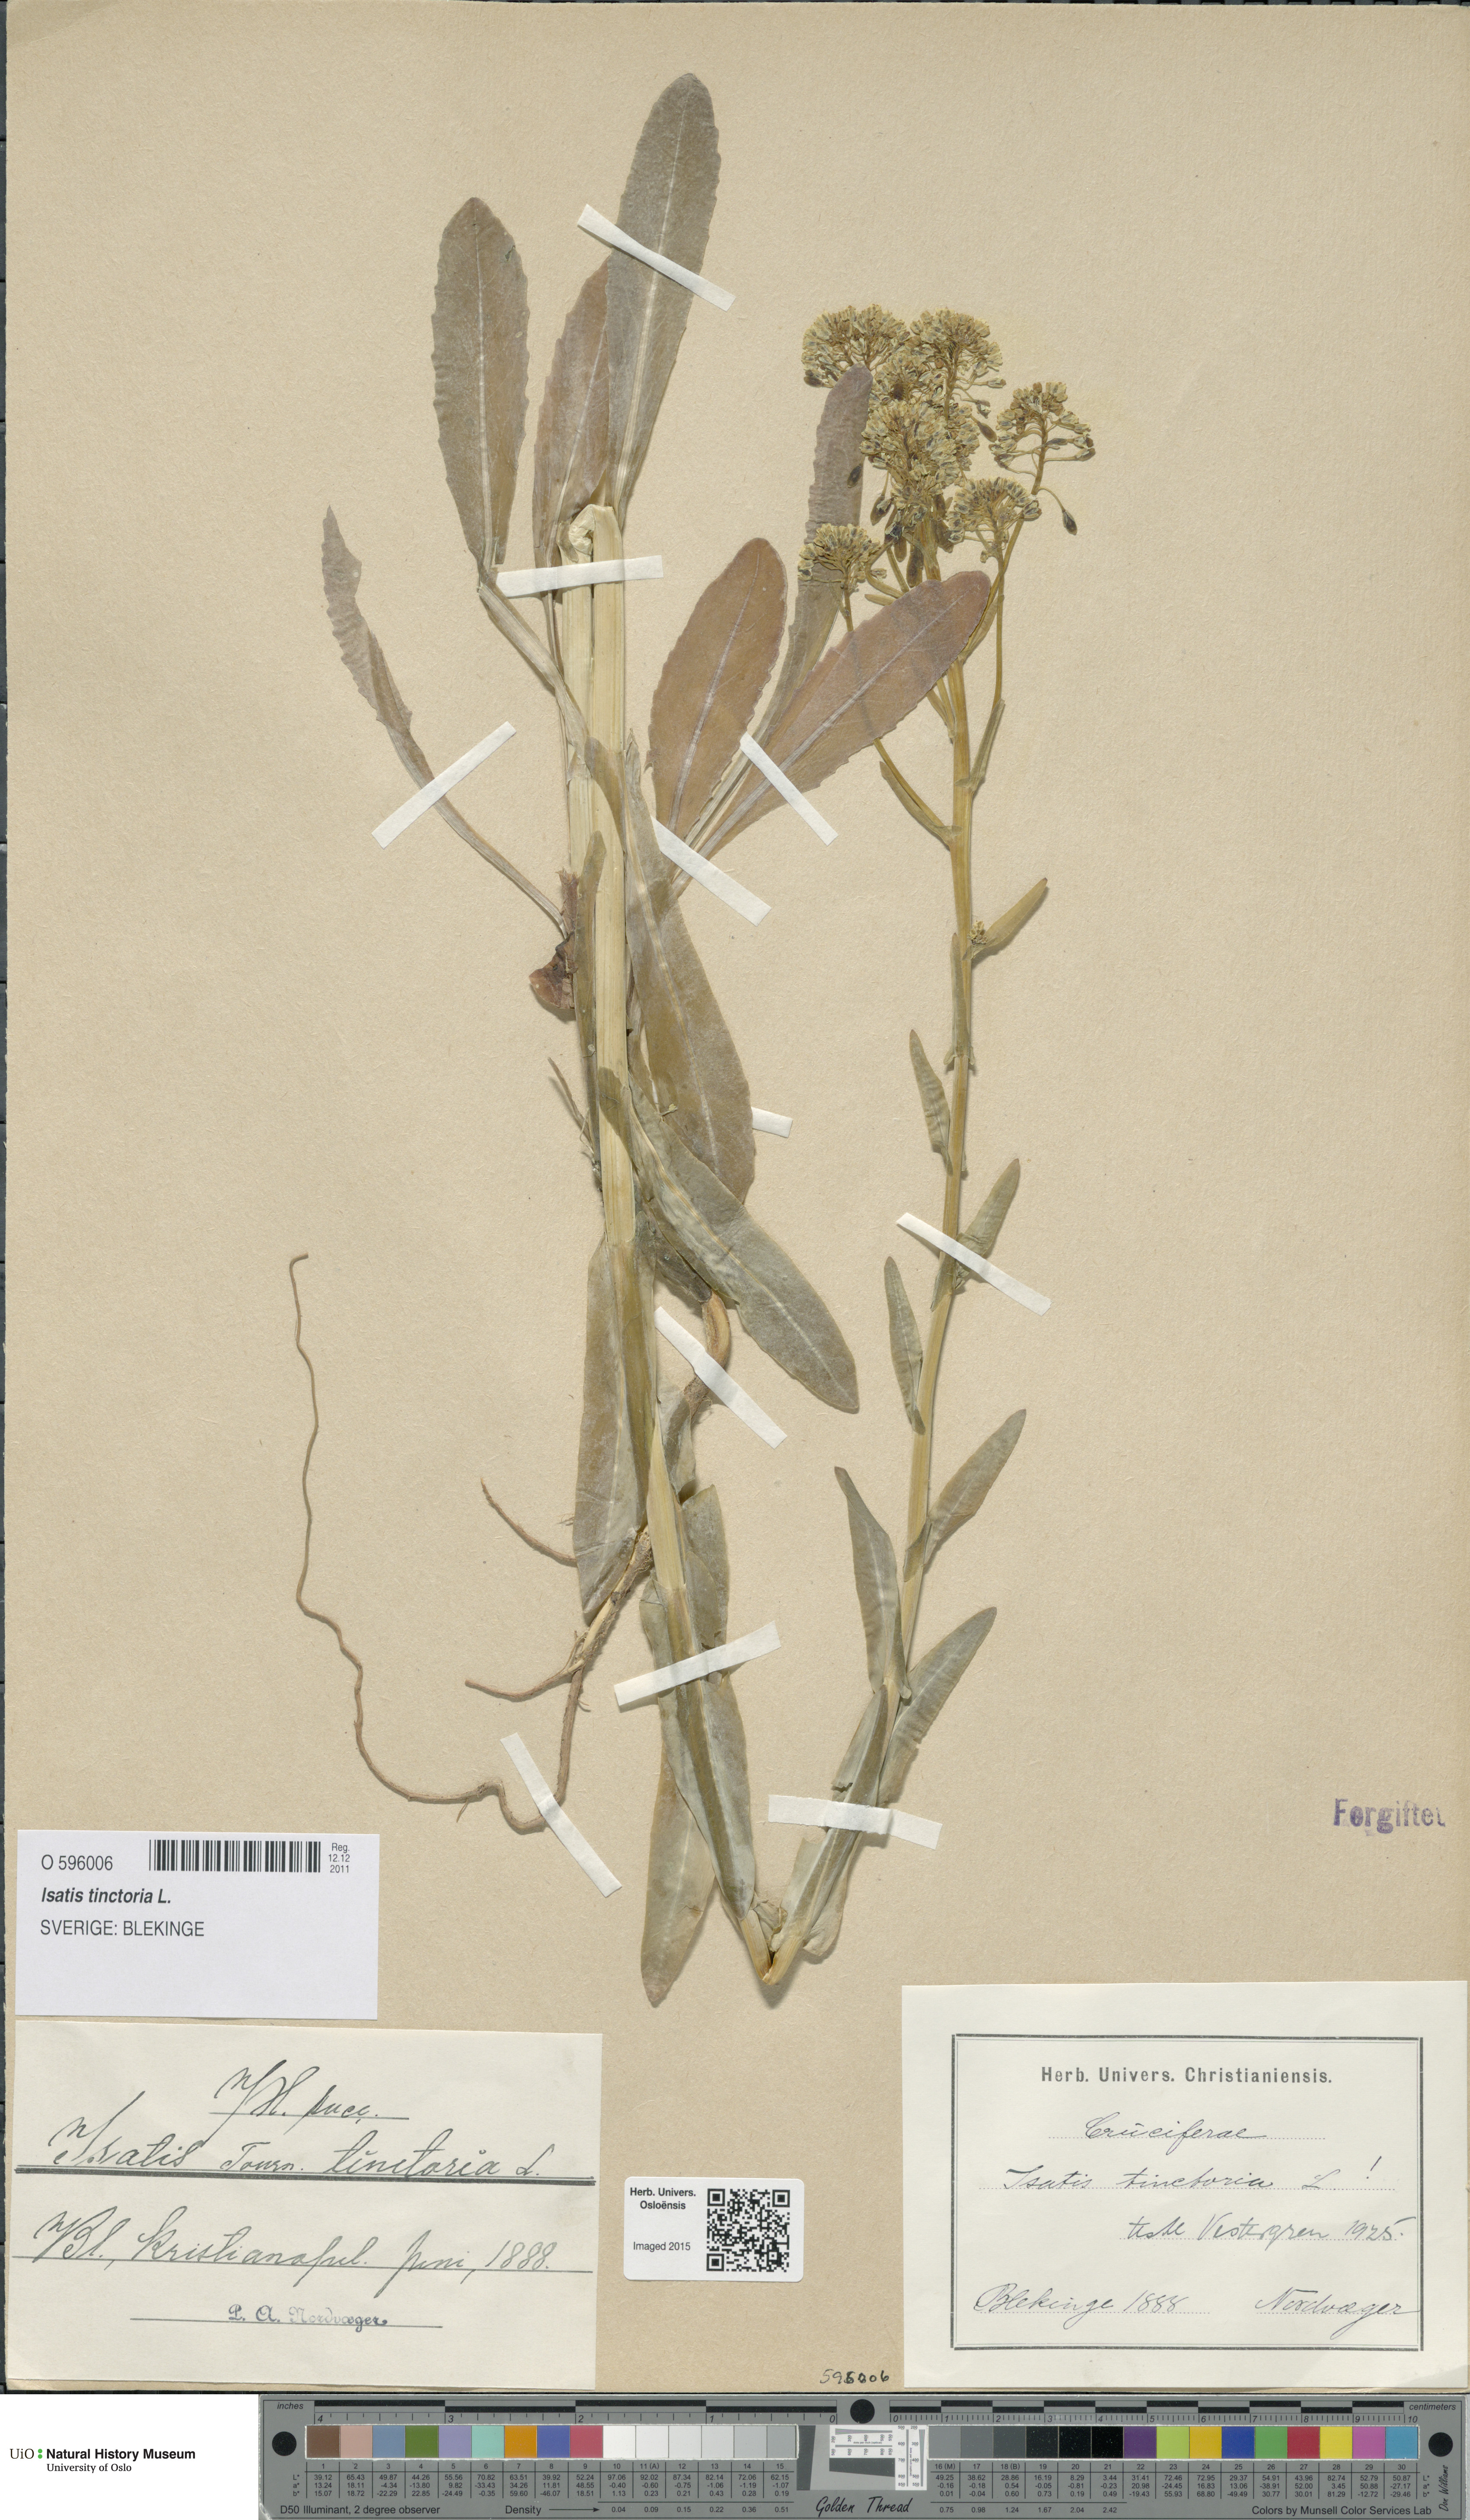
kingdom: Plantae
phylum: Tracheophyta
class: Magnoliopsida
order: Brassicales
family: Brassicaceae
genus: Isatis
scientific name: Isatis tinctoria
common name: Woad
